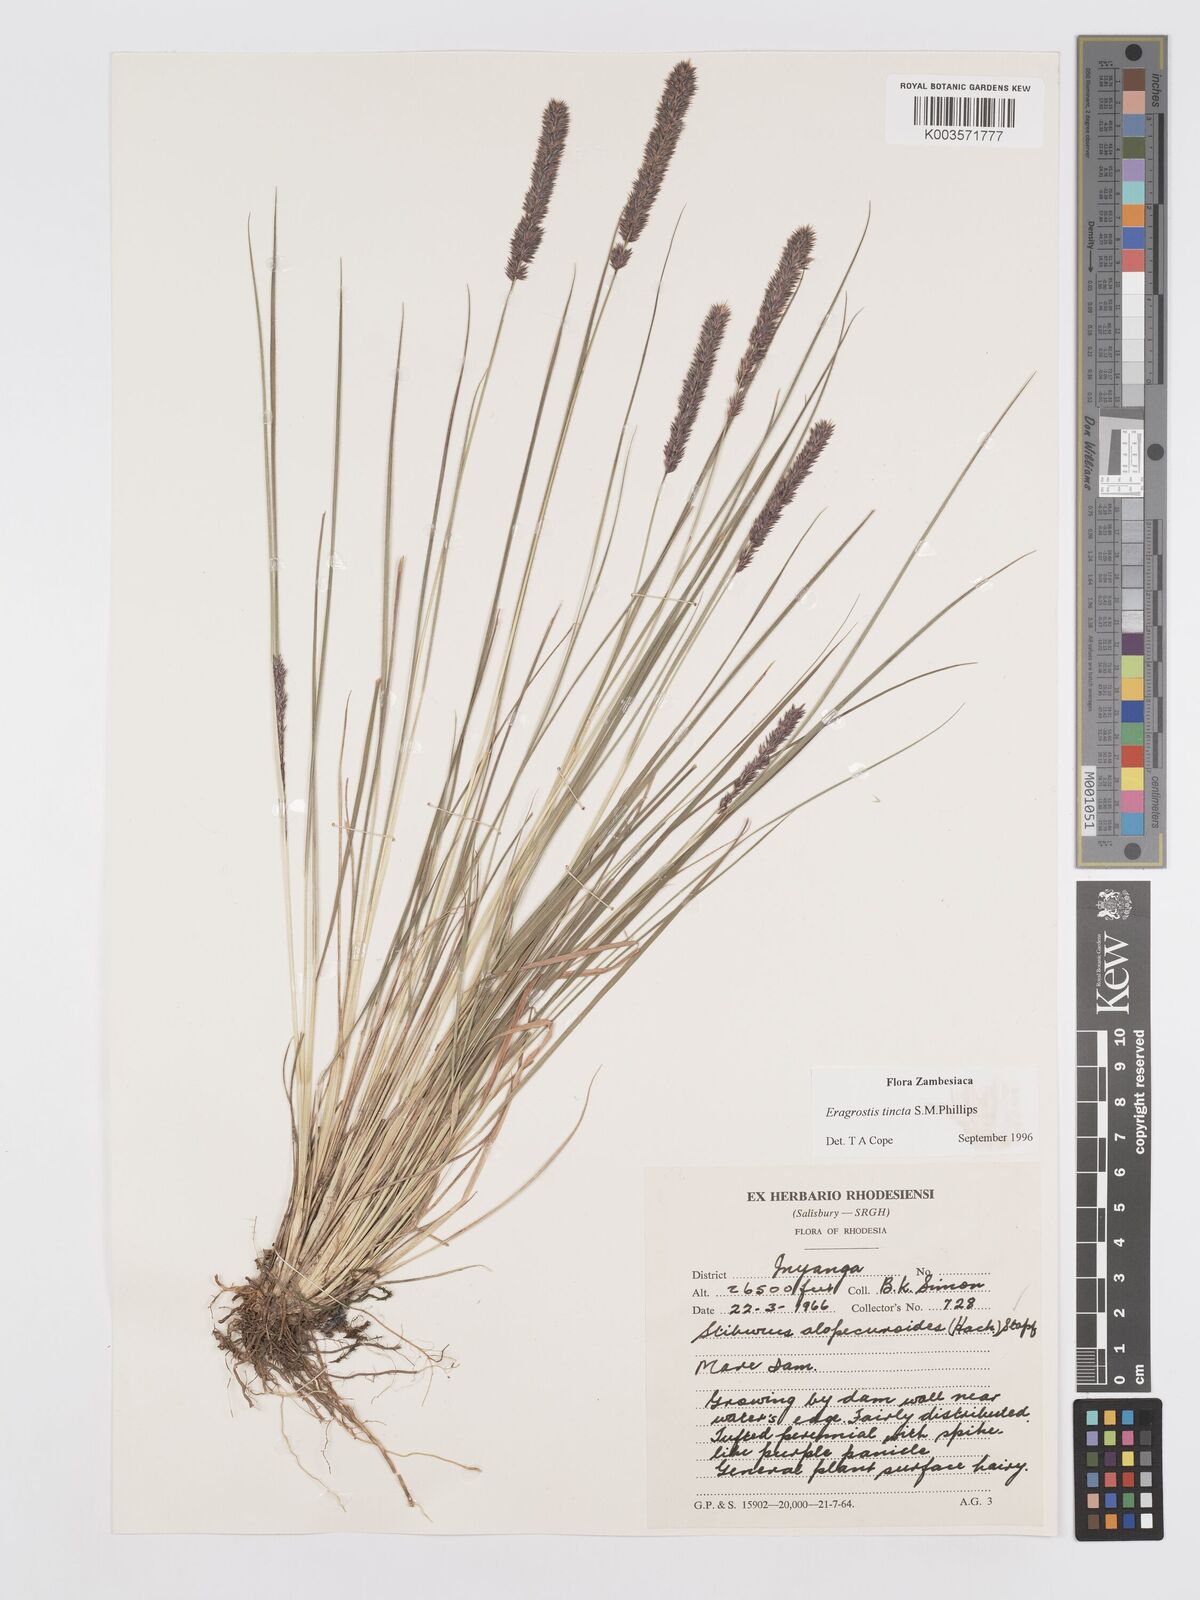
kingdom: Plantae
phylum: Tracheophyta
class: Liliopsida
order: Poales
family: Poaceae
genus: Stiburus
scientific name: Stiburus alopecuroides
